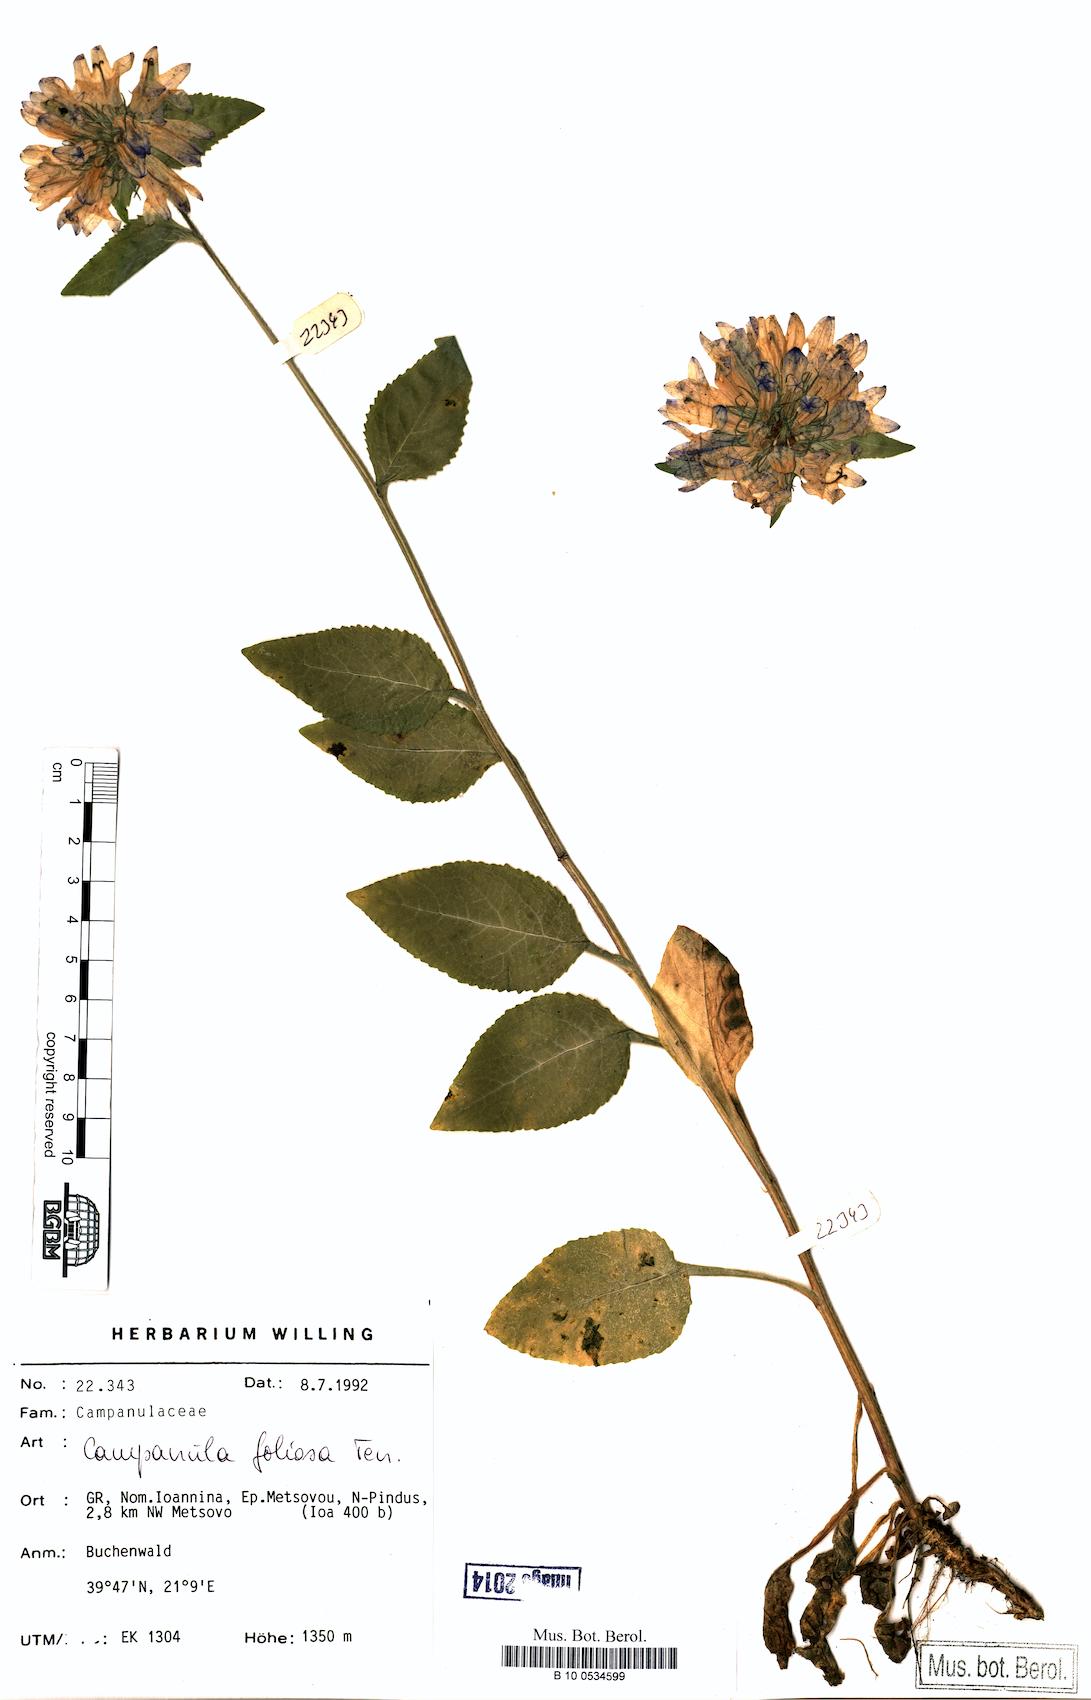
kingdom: Plantae
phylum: Tracheophyta
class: Magnoliopsida
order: Asterales
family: Campanulaceae
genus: Campanula
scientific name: Campanula foliosa
